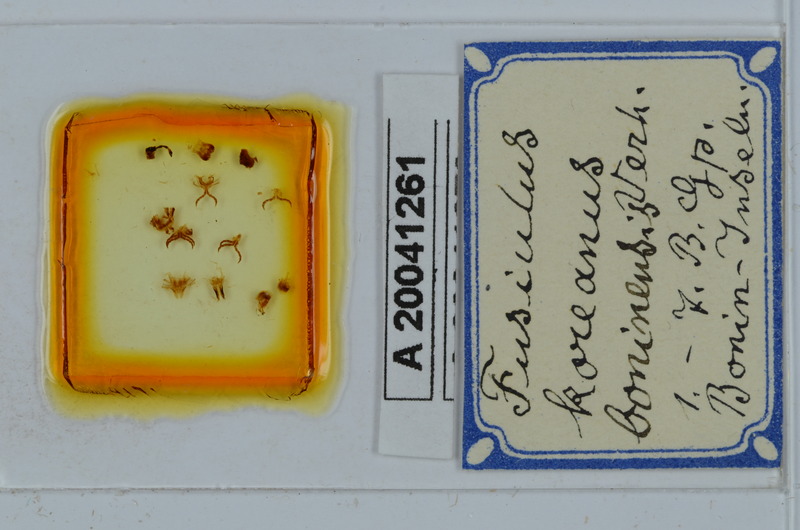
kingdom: Animalia
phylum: Arthropoda
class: Diplopoda
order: Julida
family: Julidae
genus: Anaulaciulus
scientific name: Anaulaciulus koreanus
